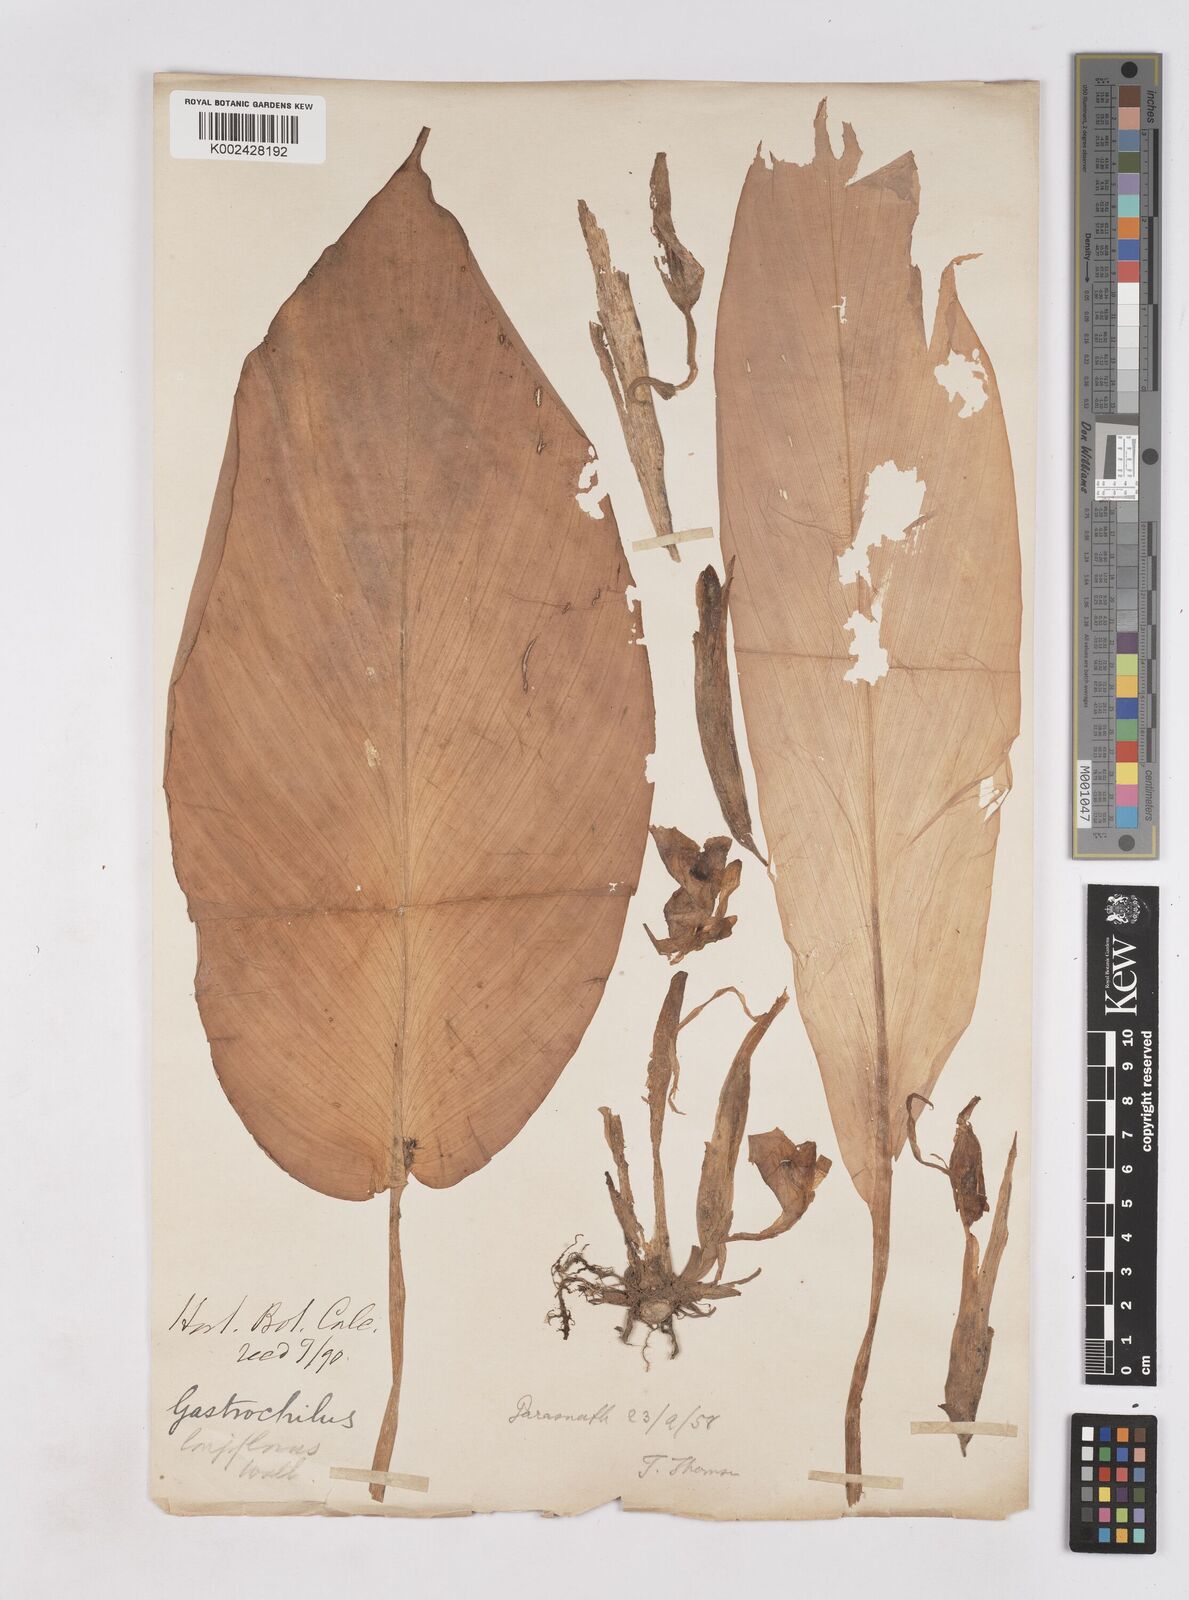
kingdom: Plantae
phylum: Tracheophyta
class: Liliopsida
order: Zingiberales
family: Zingiberaceae
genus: Boesenbergia
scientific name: Boesenbergia longiflora
